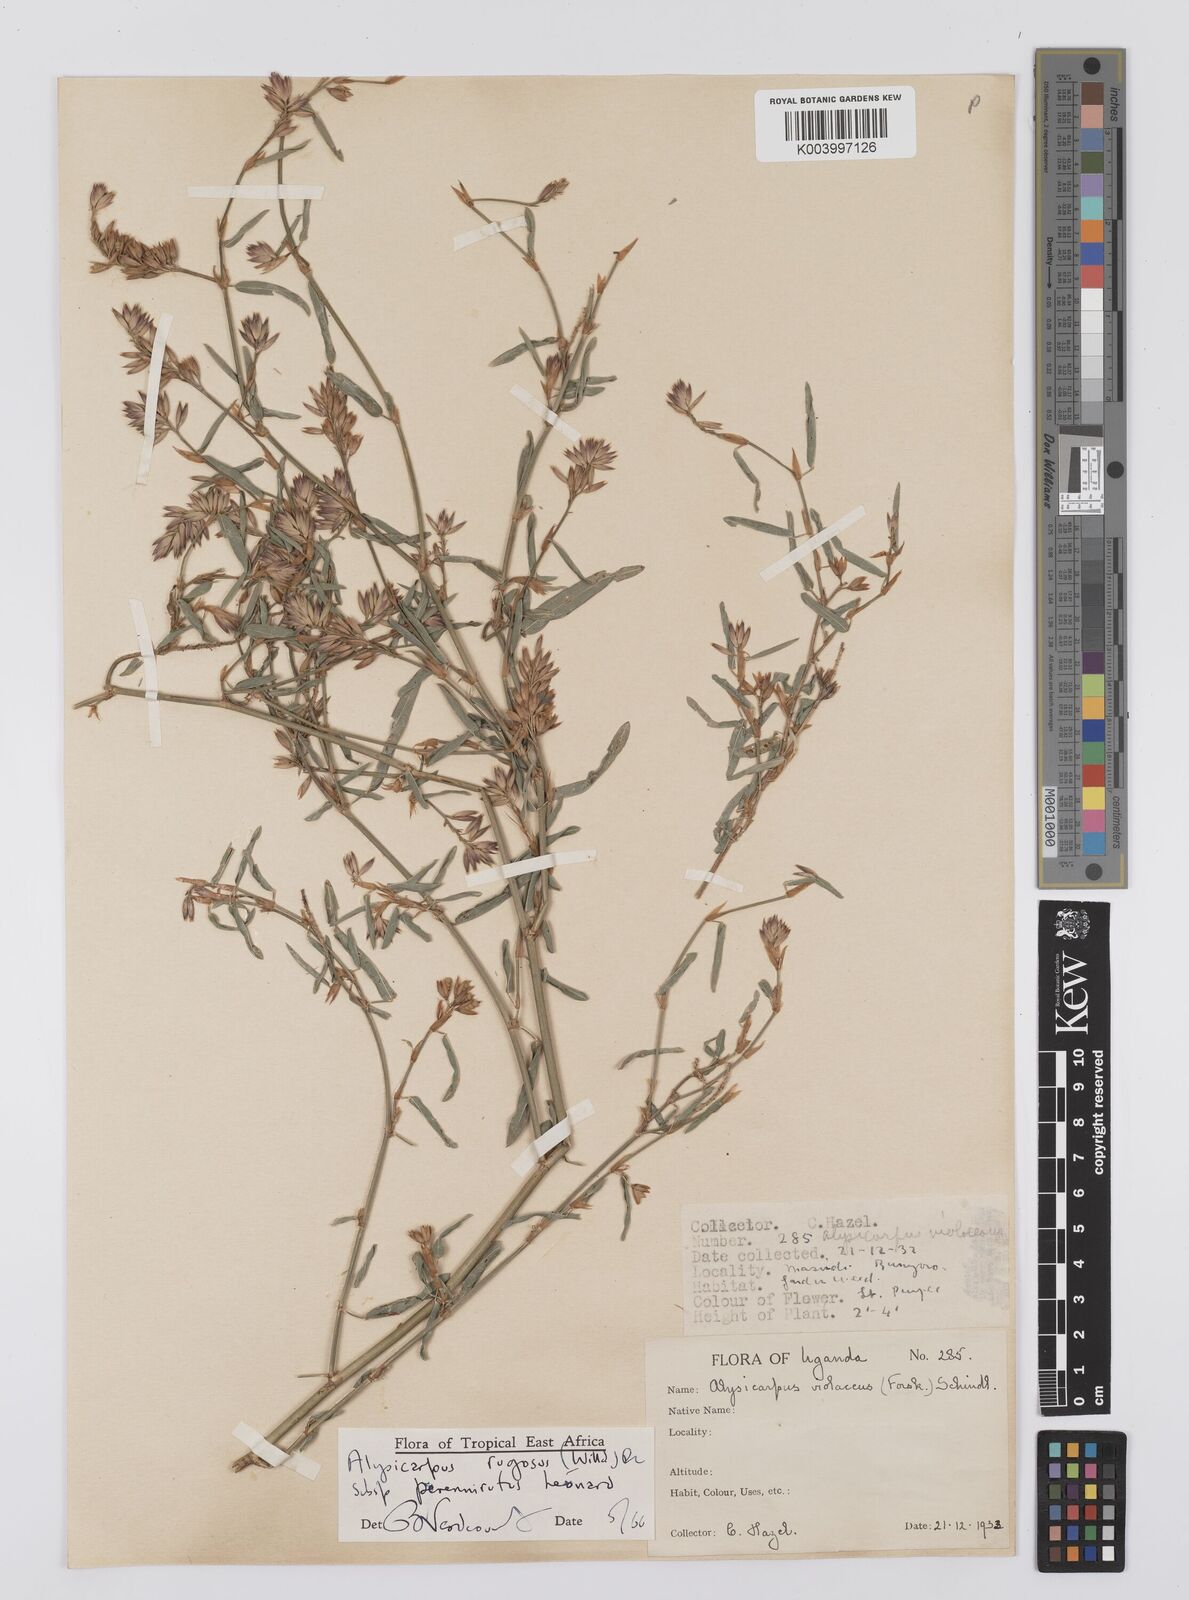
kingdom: Plantae
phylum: Tracheophyta
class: Magnoliopsida
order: Fabales
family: Fabaceae
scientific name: Fabaceae
